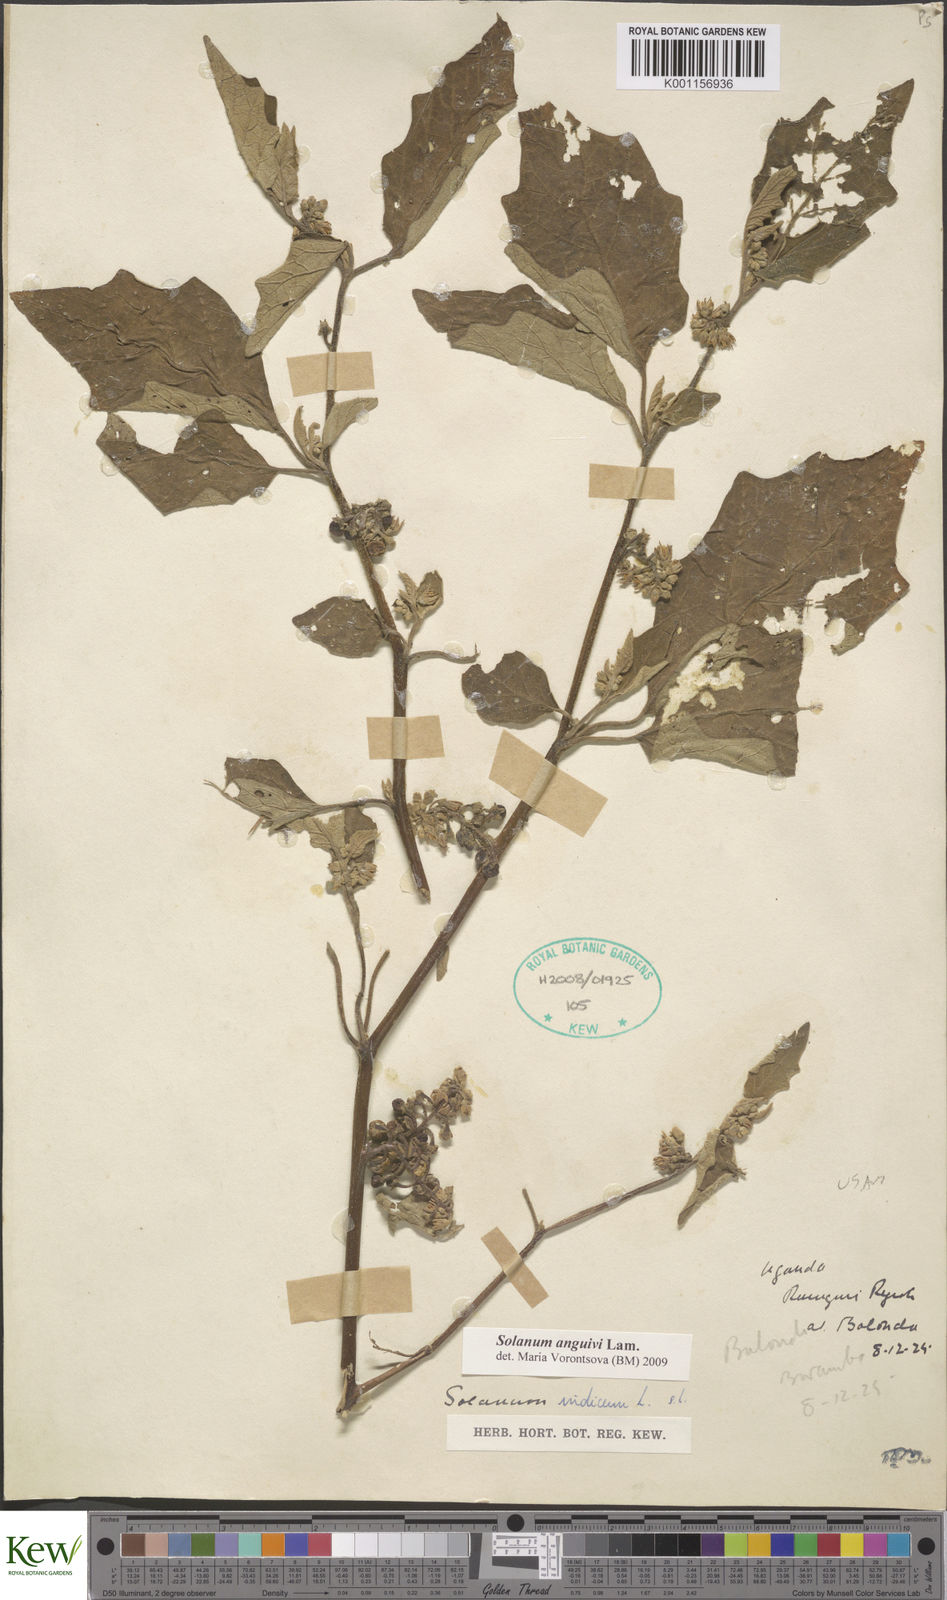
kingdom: Plantae
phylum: Tracheophyta
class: Magnoliopsida
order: Solanales
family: Solanaceae
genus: Solanum
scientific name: Solanum anguivi
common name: Forest bitterberry
